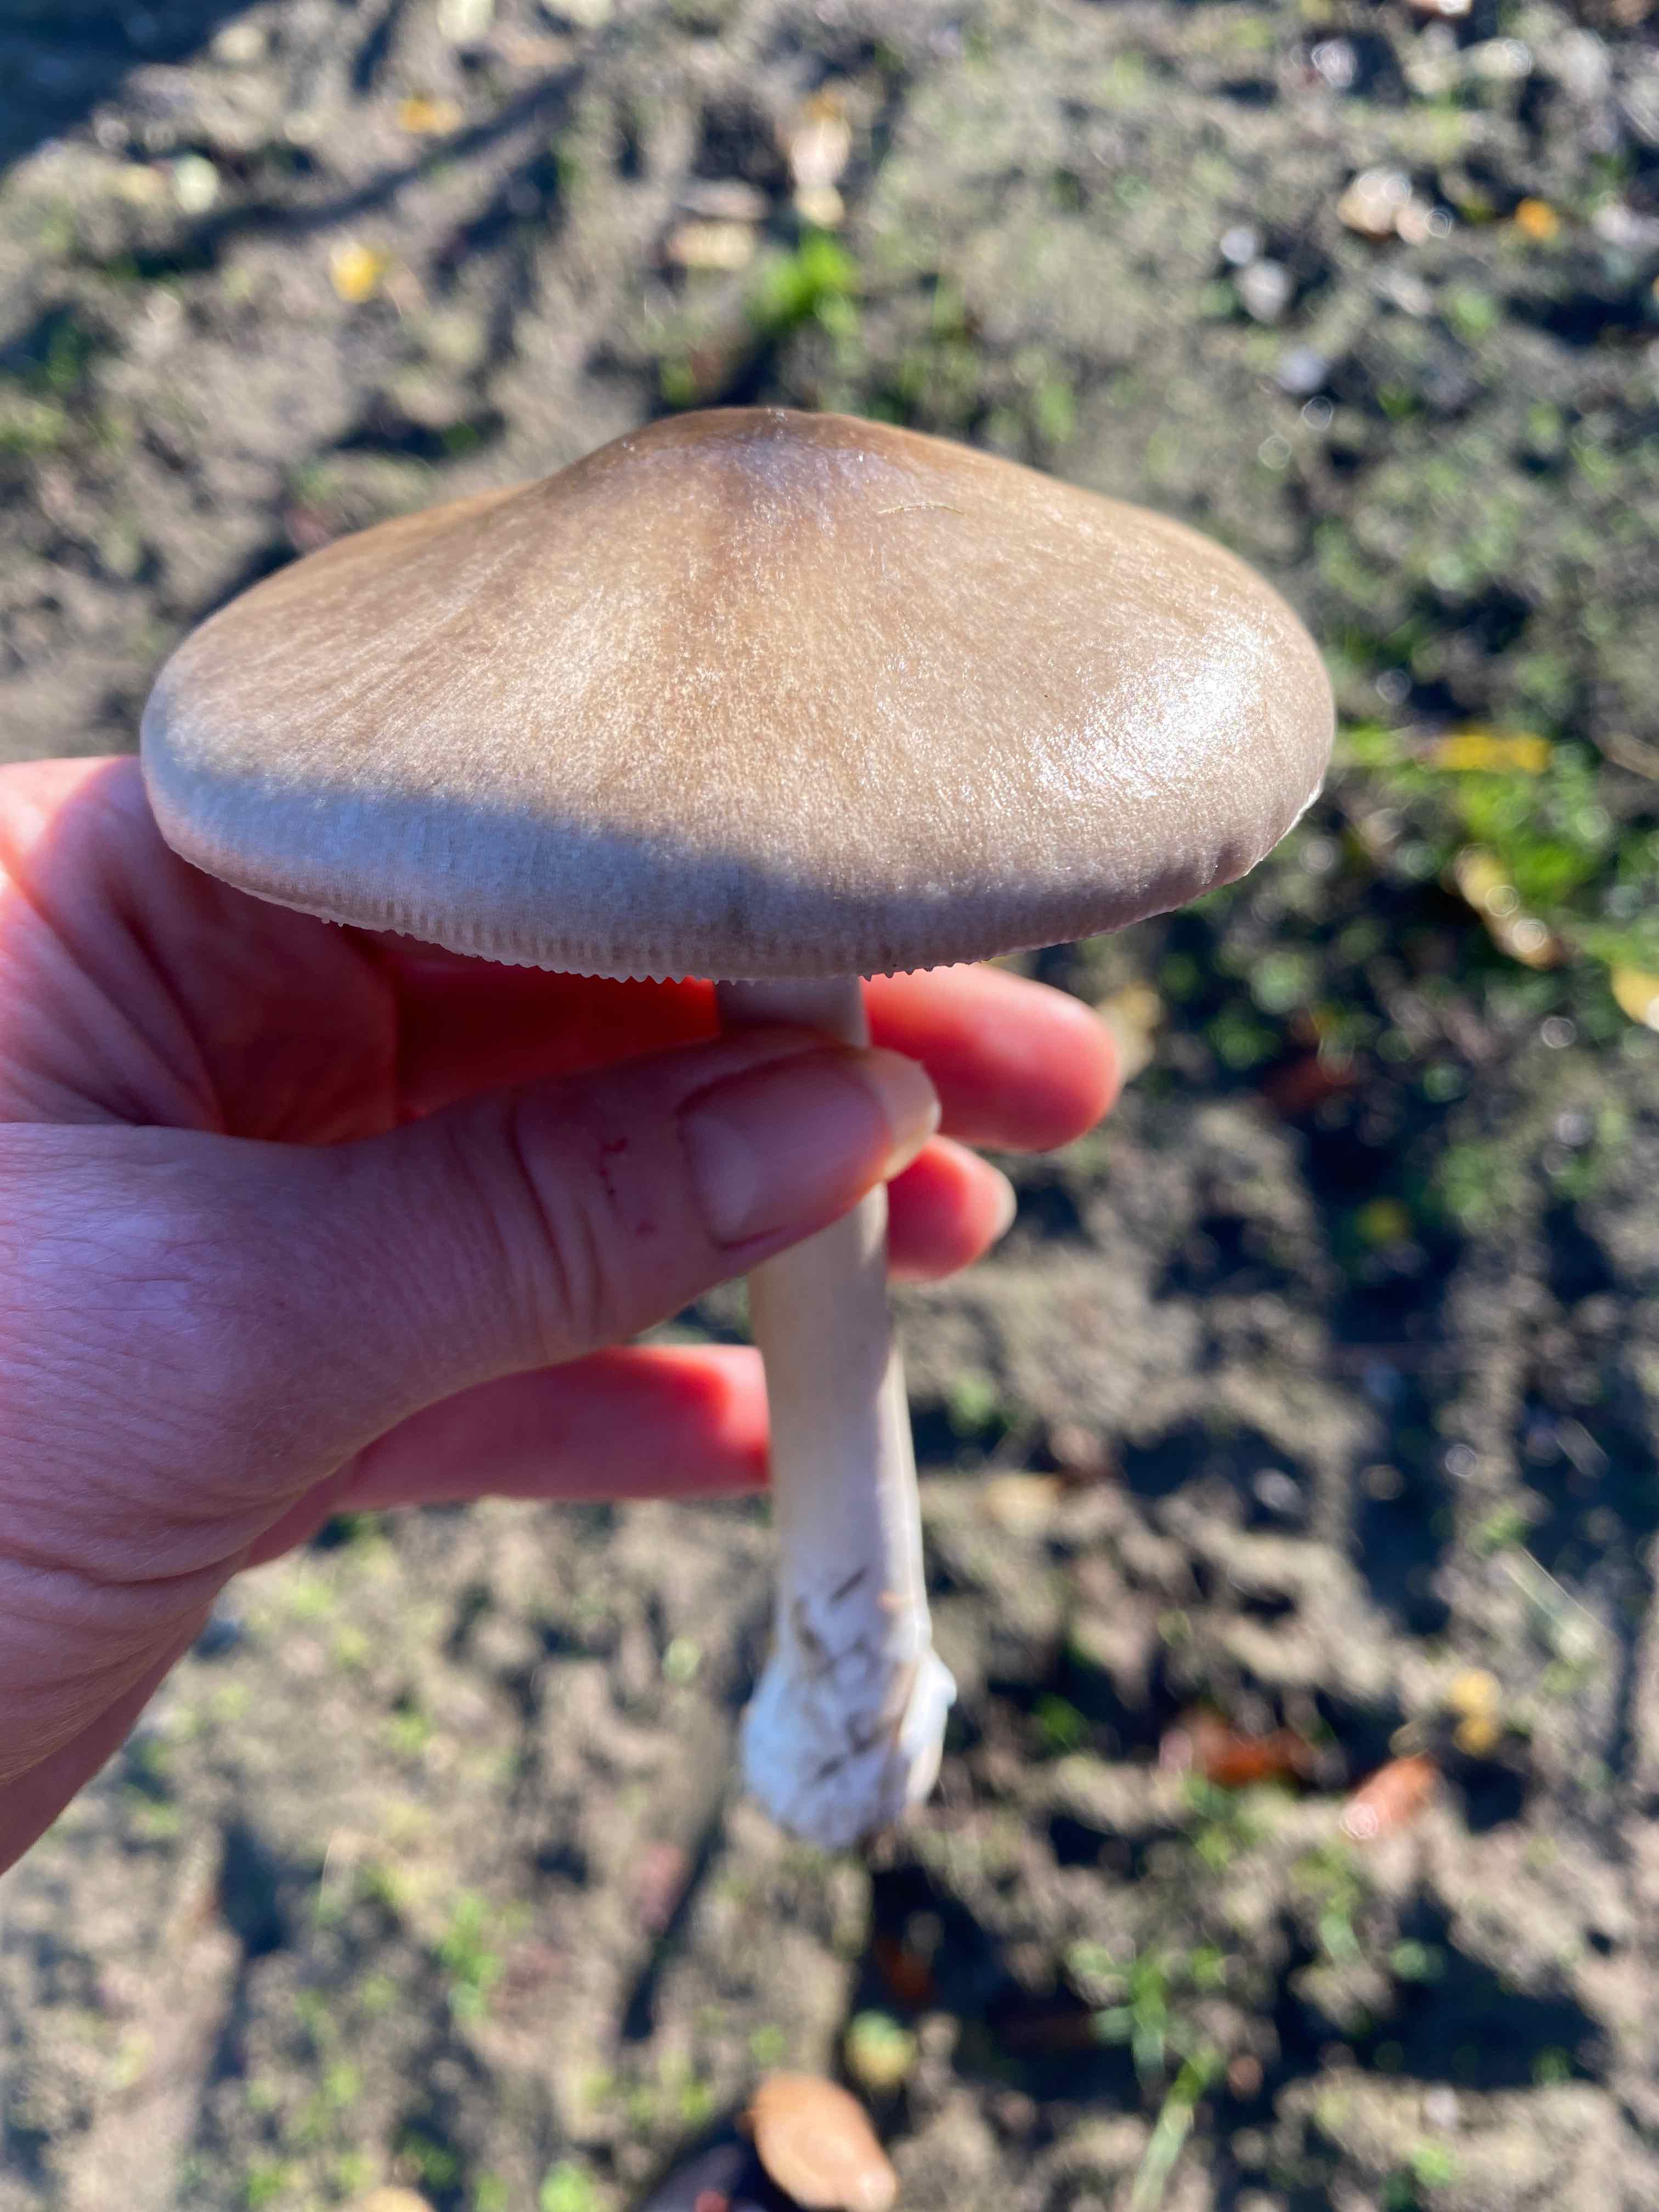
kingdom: Fungi
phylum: Basidiomycota
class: Agaricomycetes
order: Agaricales
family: Pluteaceae
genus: Volvopluteus
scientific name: Volvopluteus gloiocephalus
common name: høj posesvamp
